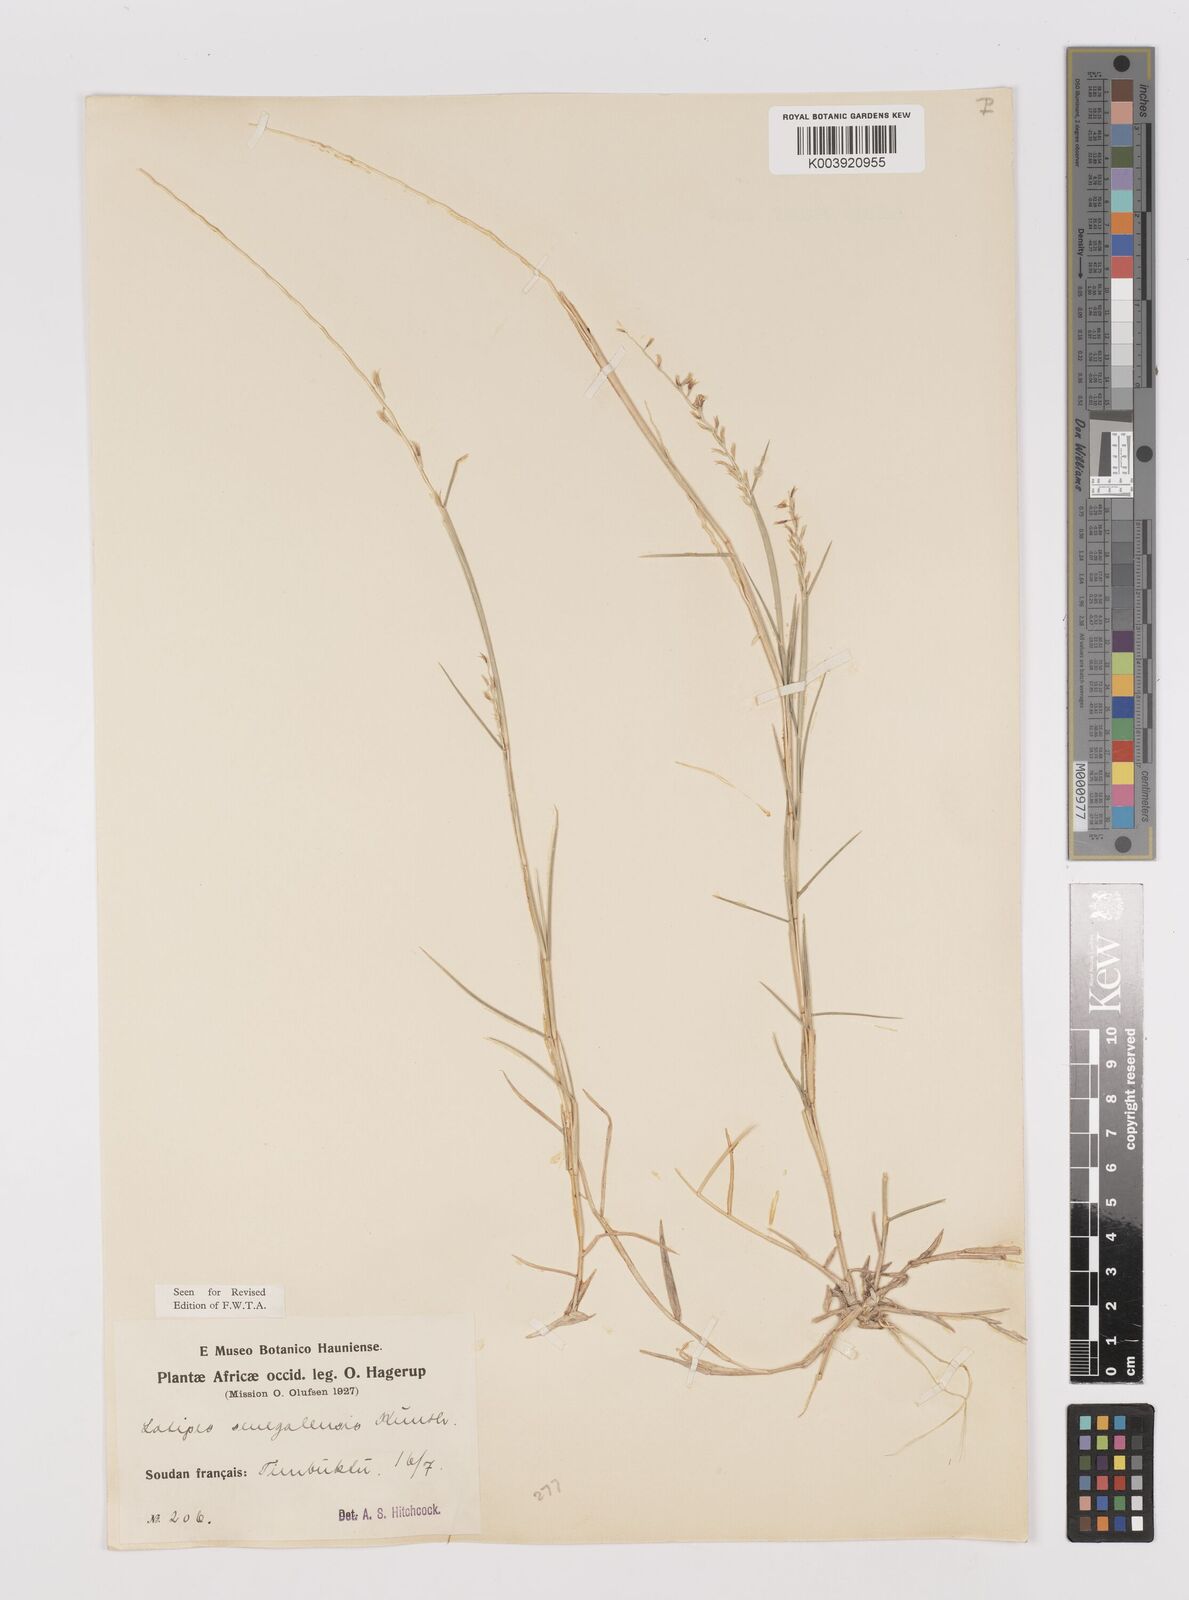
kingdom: Plantae
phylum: Tracheophyta
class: Liliopsida
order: Poales
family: Poaceae
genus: Leptothrium
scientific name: Leptothrium senegalense
